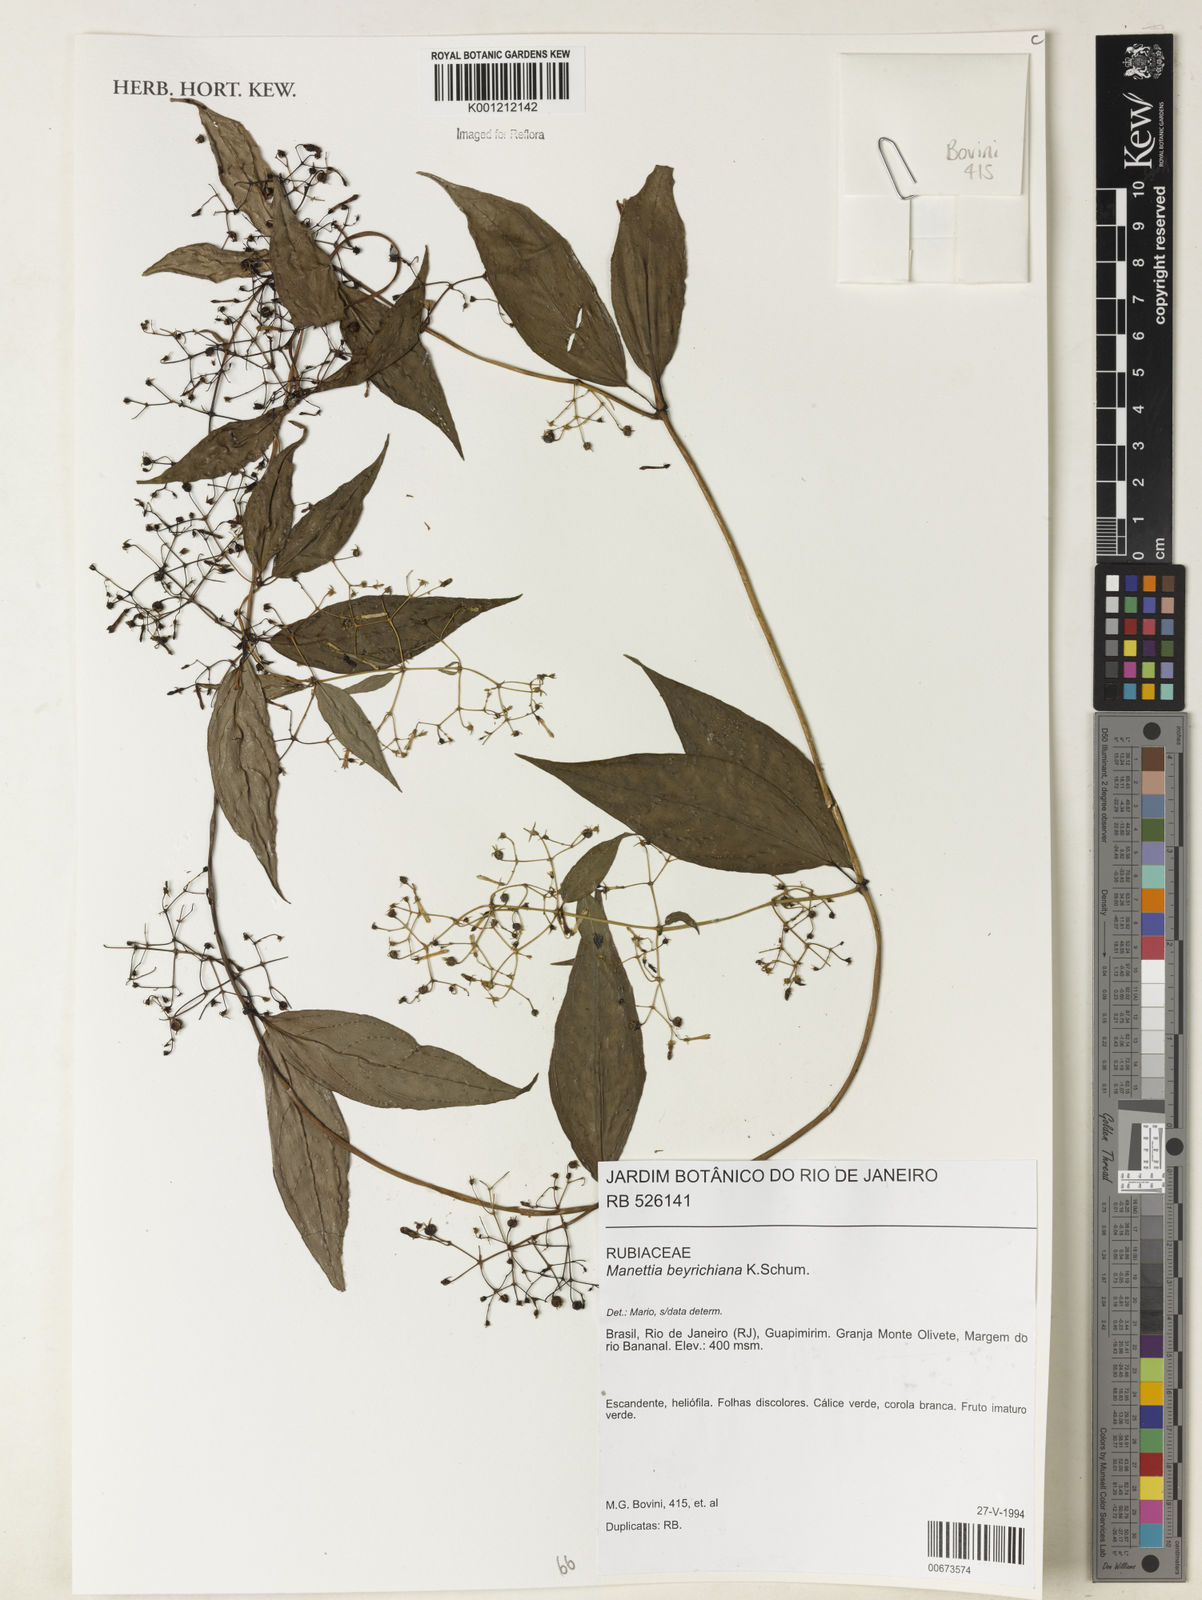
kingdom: Plantae
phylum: Tracheophyta
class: Magnoliopsida
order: Gentianales
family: Rubiaceae
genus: Manettia
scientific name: Manettia beyrichiana
